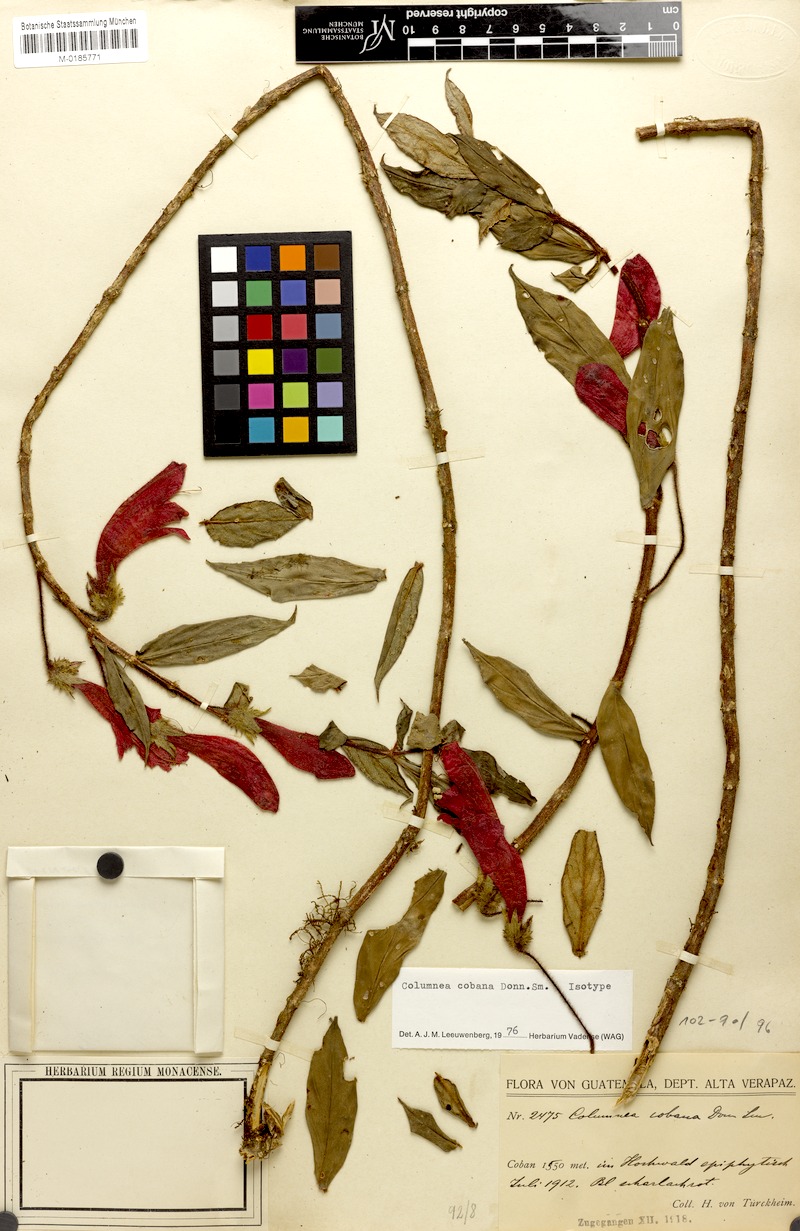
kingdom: Plantae
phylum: Tracheophyta
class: Magnoliopsida
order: Lamiales
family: Gesneriaceae
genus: Columnea
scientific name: Columnea cobana
